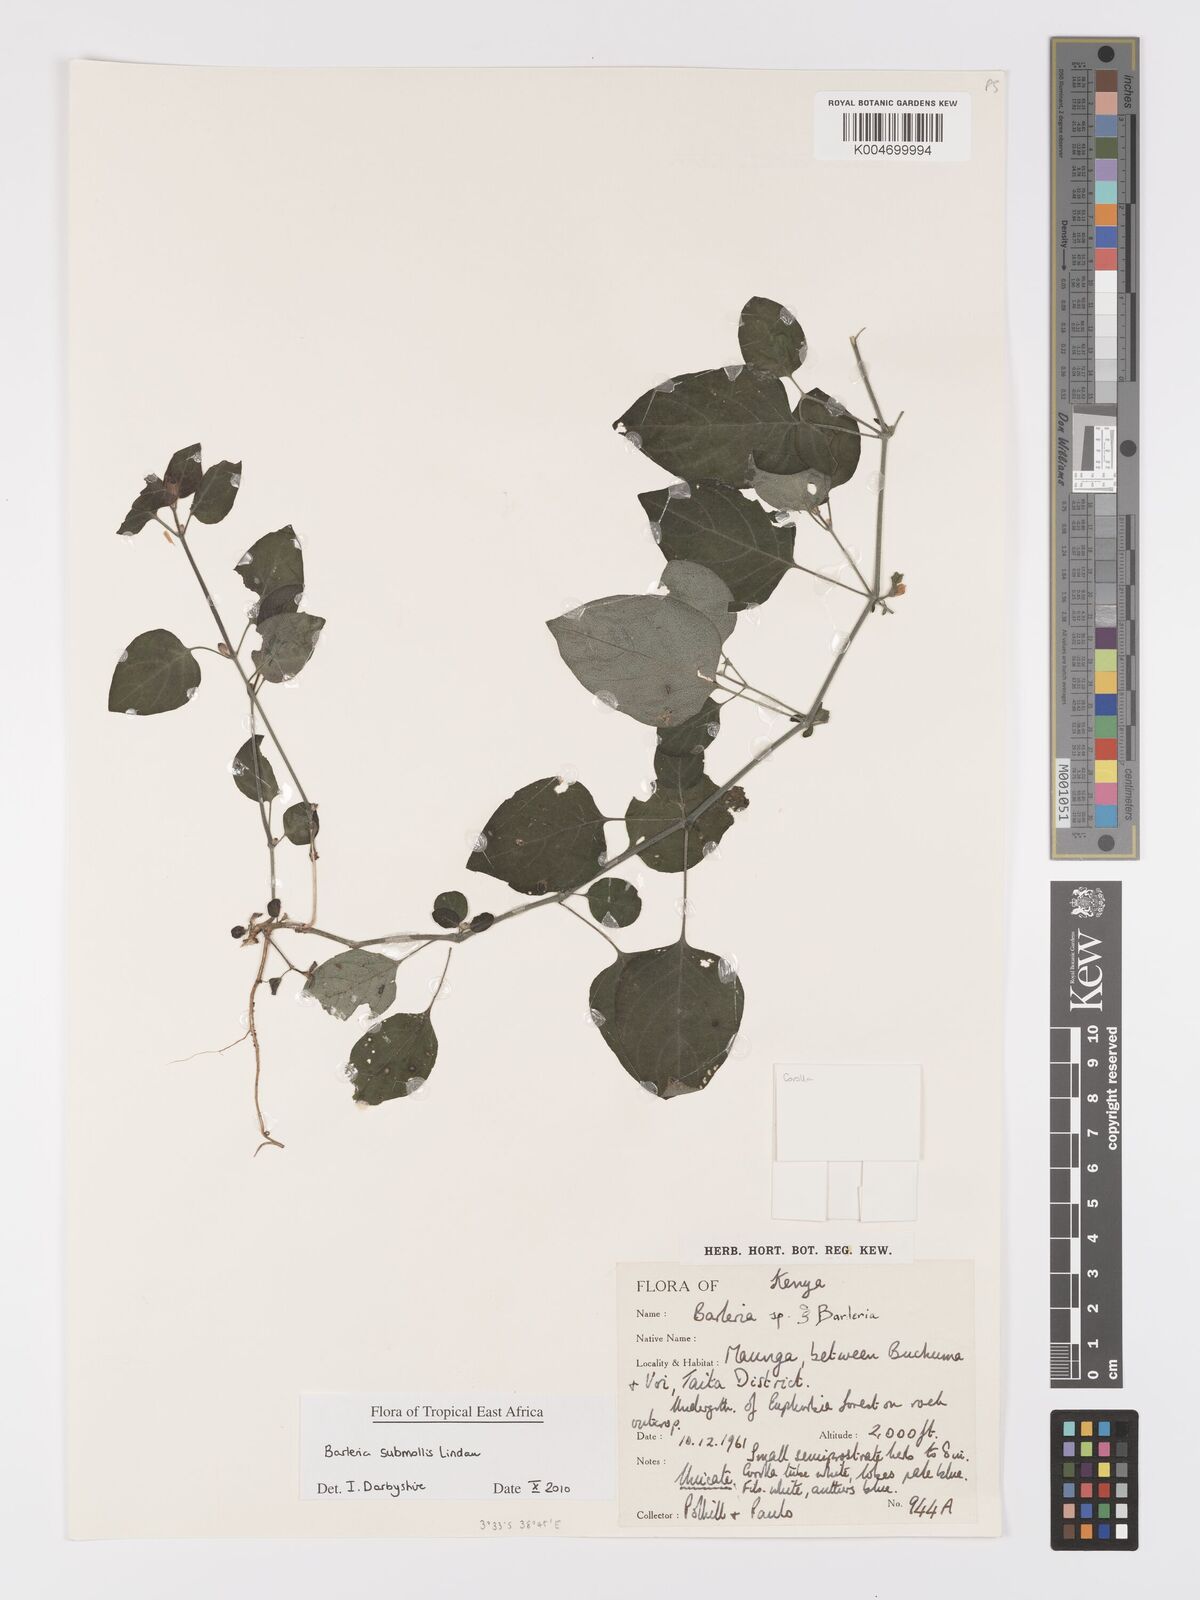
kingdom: Plantae
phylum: Tracheophyta
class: Magnoliopsida
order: Lamiales
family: Acanthaceae
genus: Barleria
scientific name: Barleria submollis
